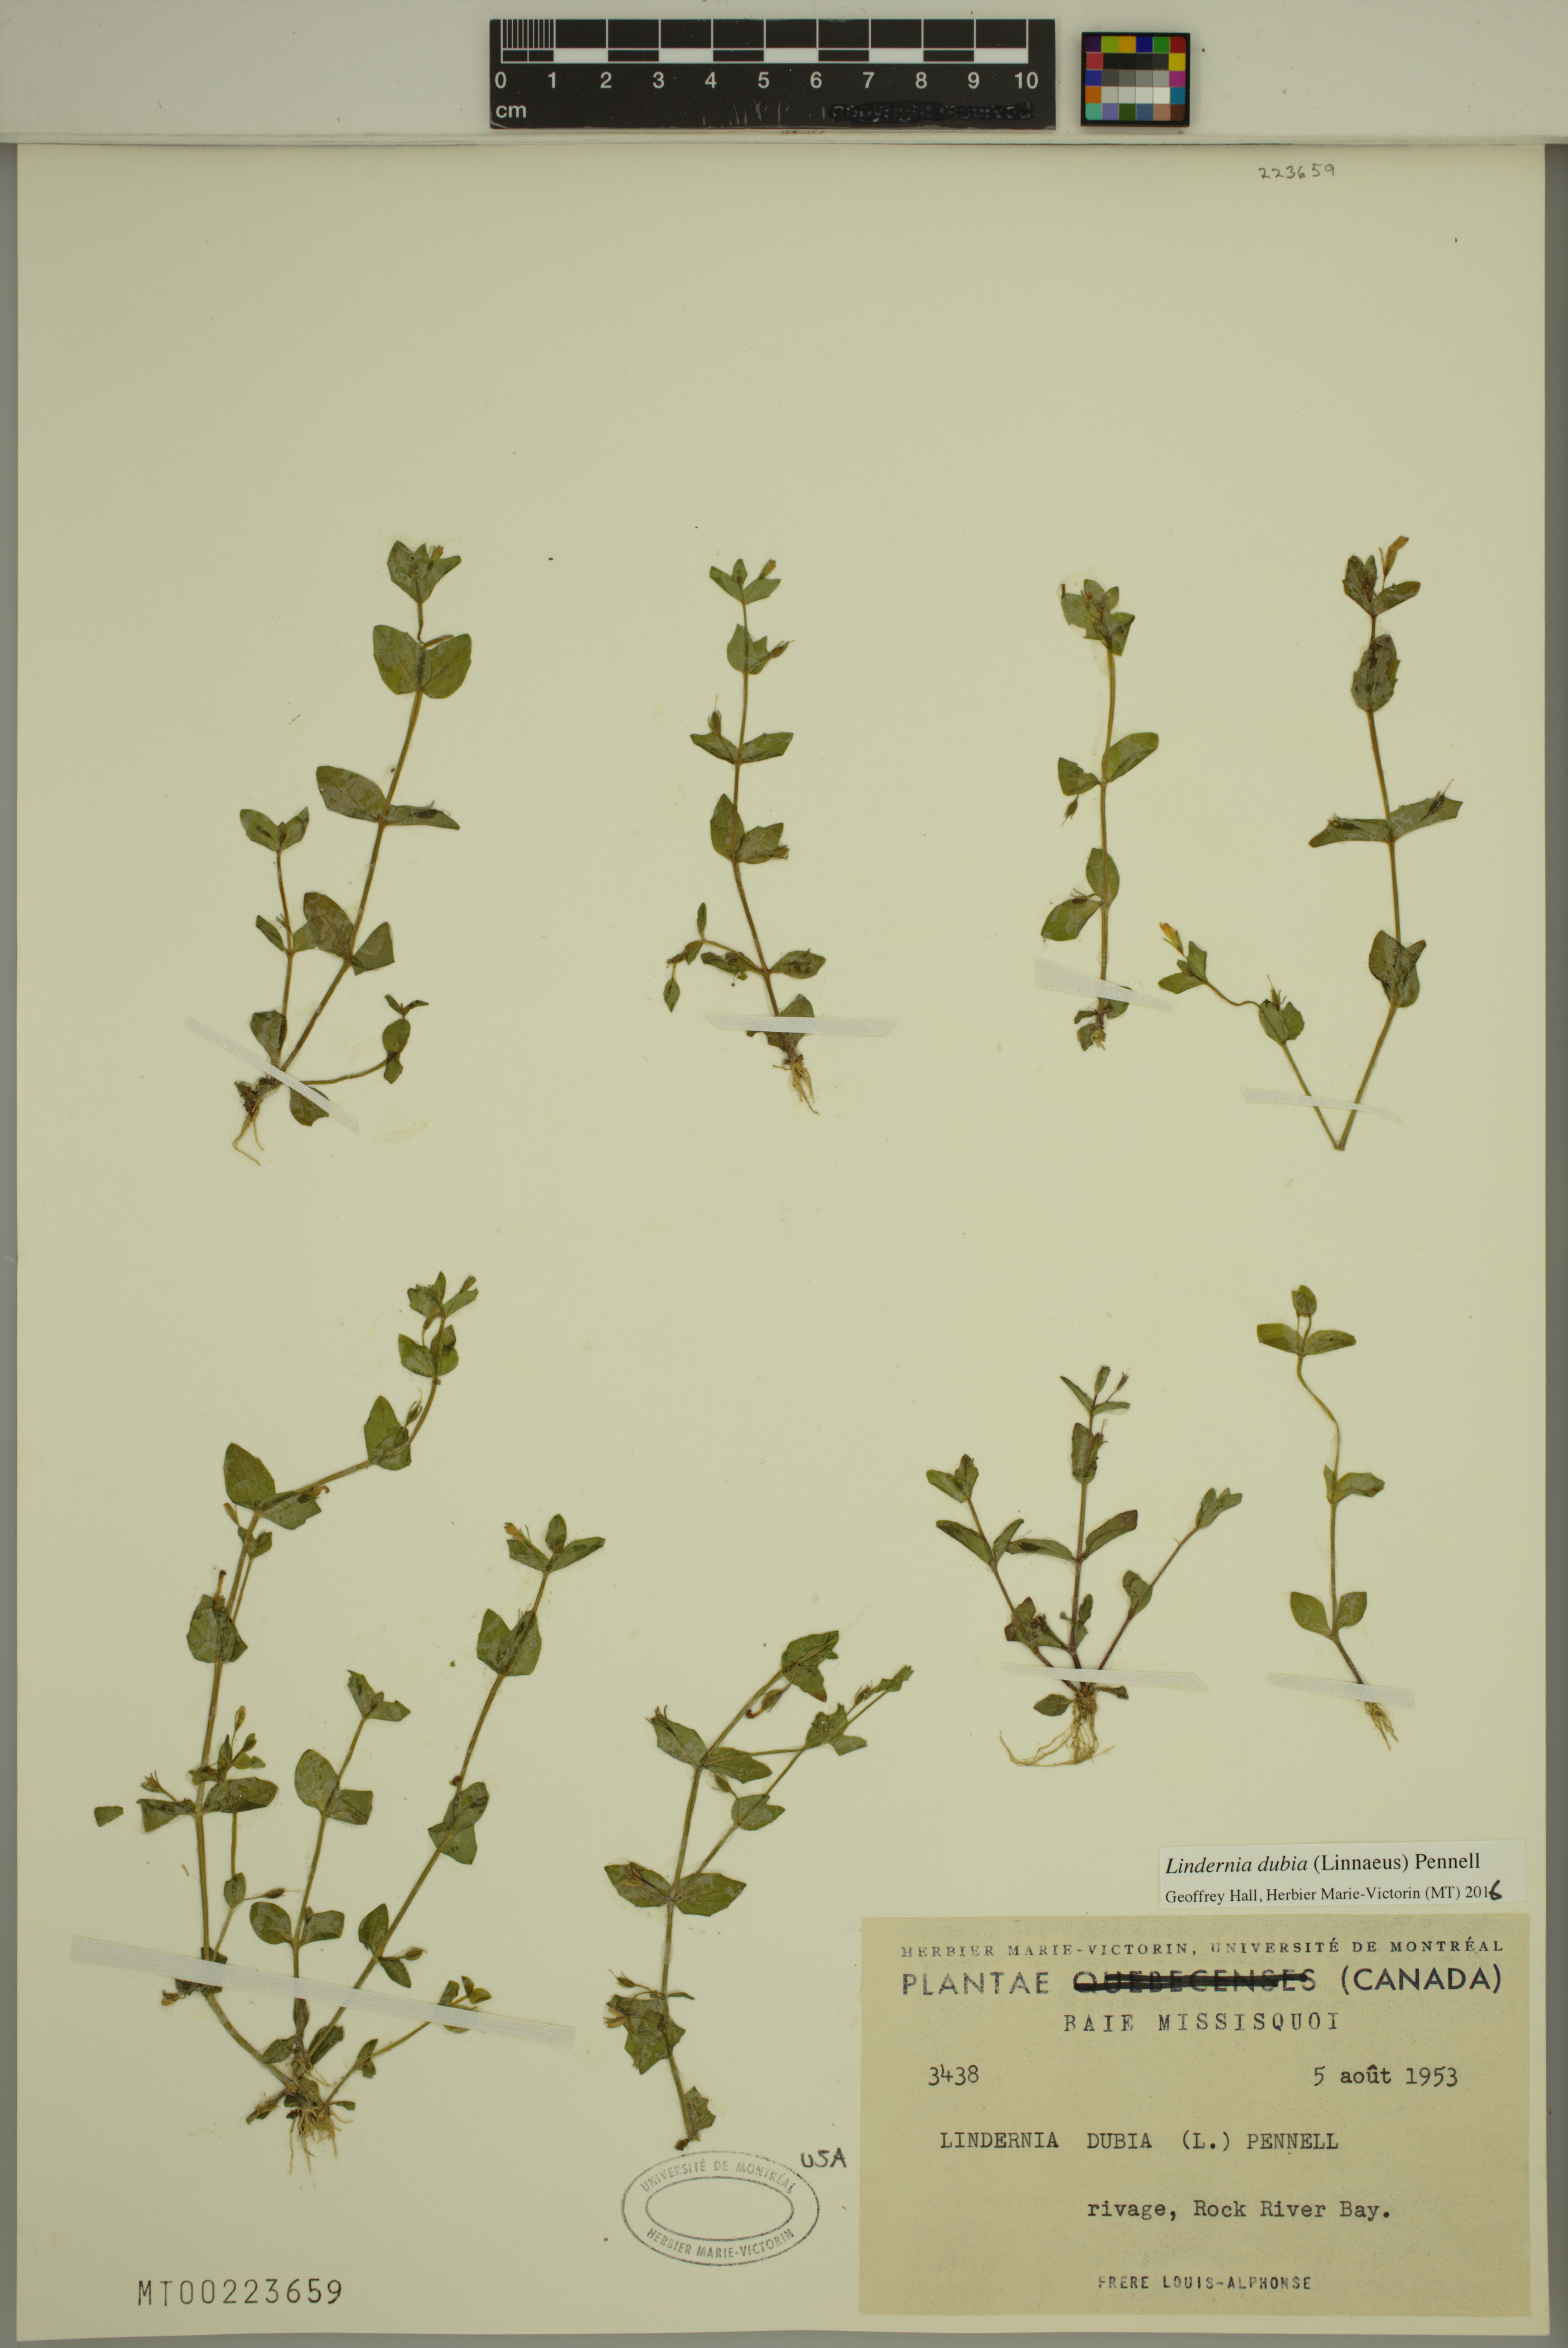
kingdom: Plantae
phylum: Tracheophyta
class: Magnoliopsida
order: Lamiales
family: Linderniaceae
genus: Lindernia
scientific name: Lindernia dubia
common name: Annual false pimpernel
